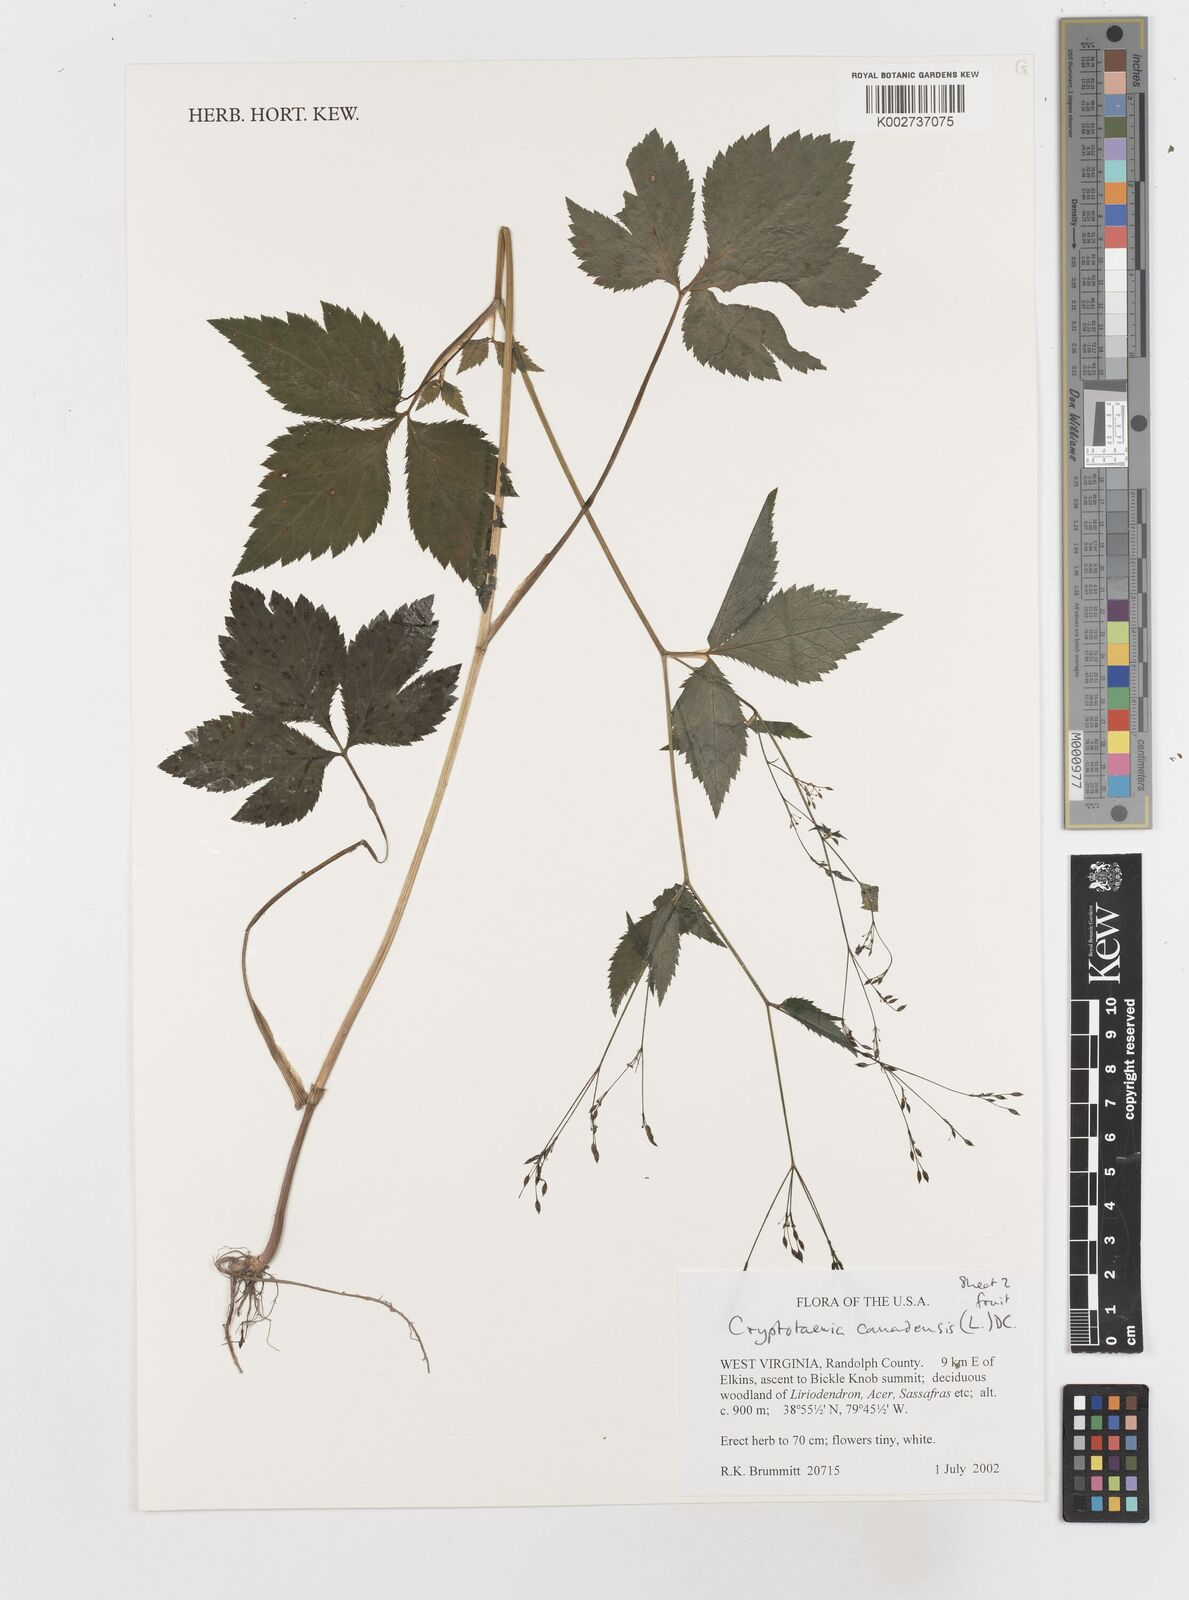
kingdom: Plantae
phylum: Tracheophyta
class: Magnoliopsida
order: Apiales
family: Apiaceae
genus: Cryptotaenia
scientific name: Cryptotaenia canadensis
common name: Honewort
